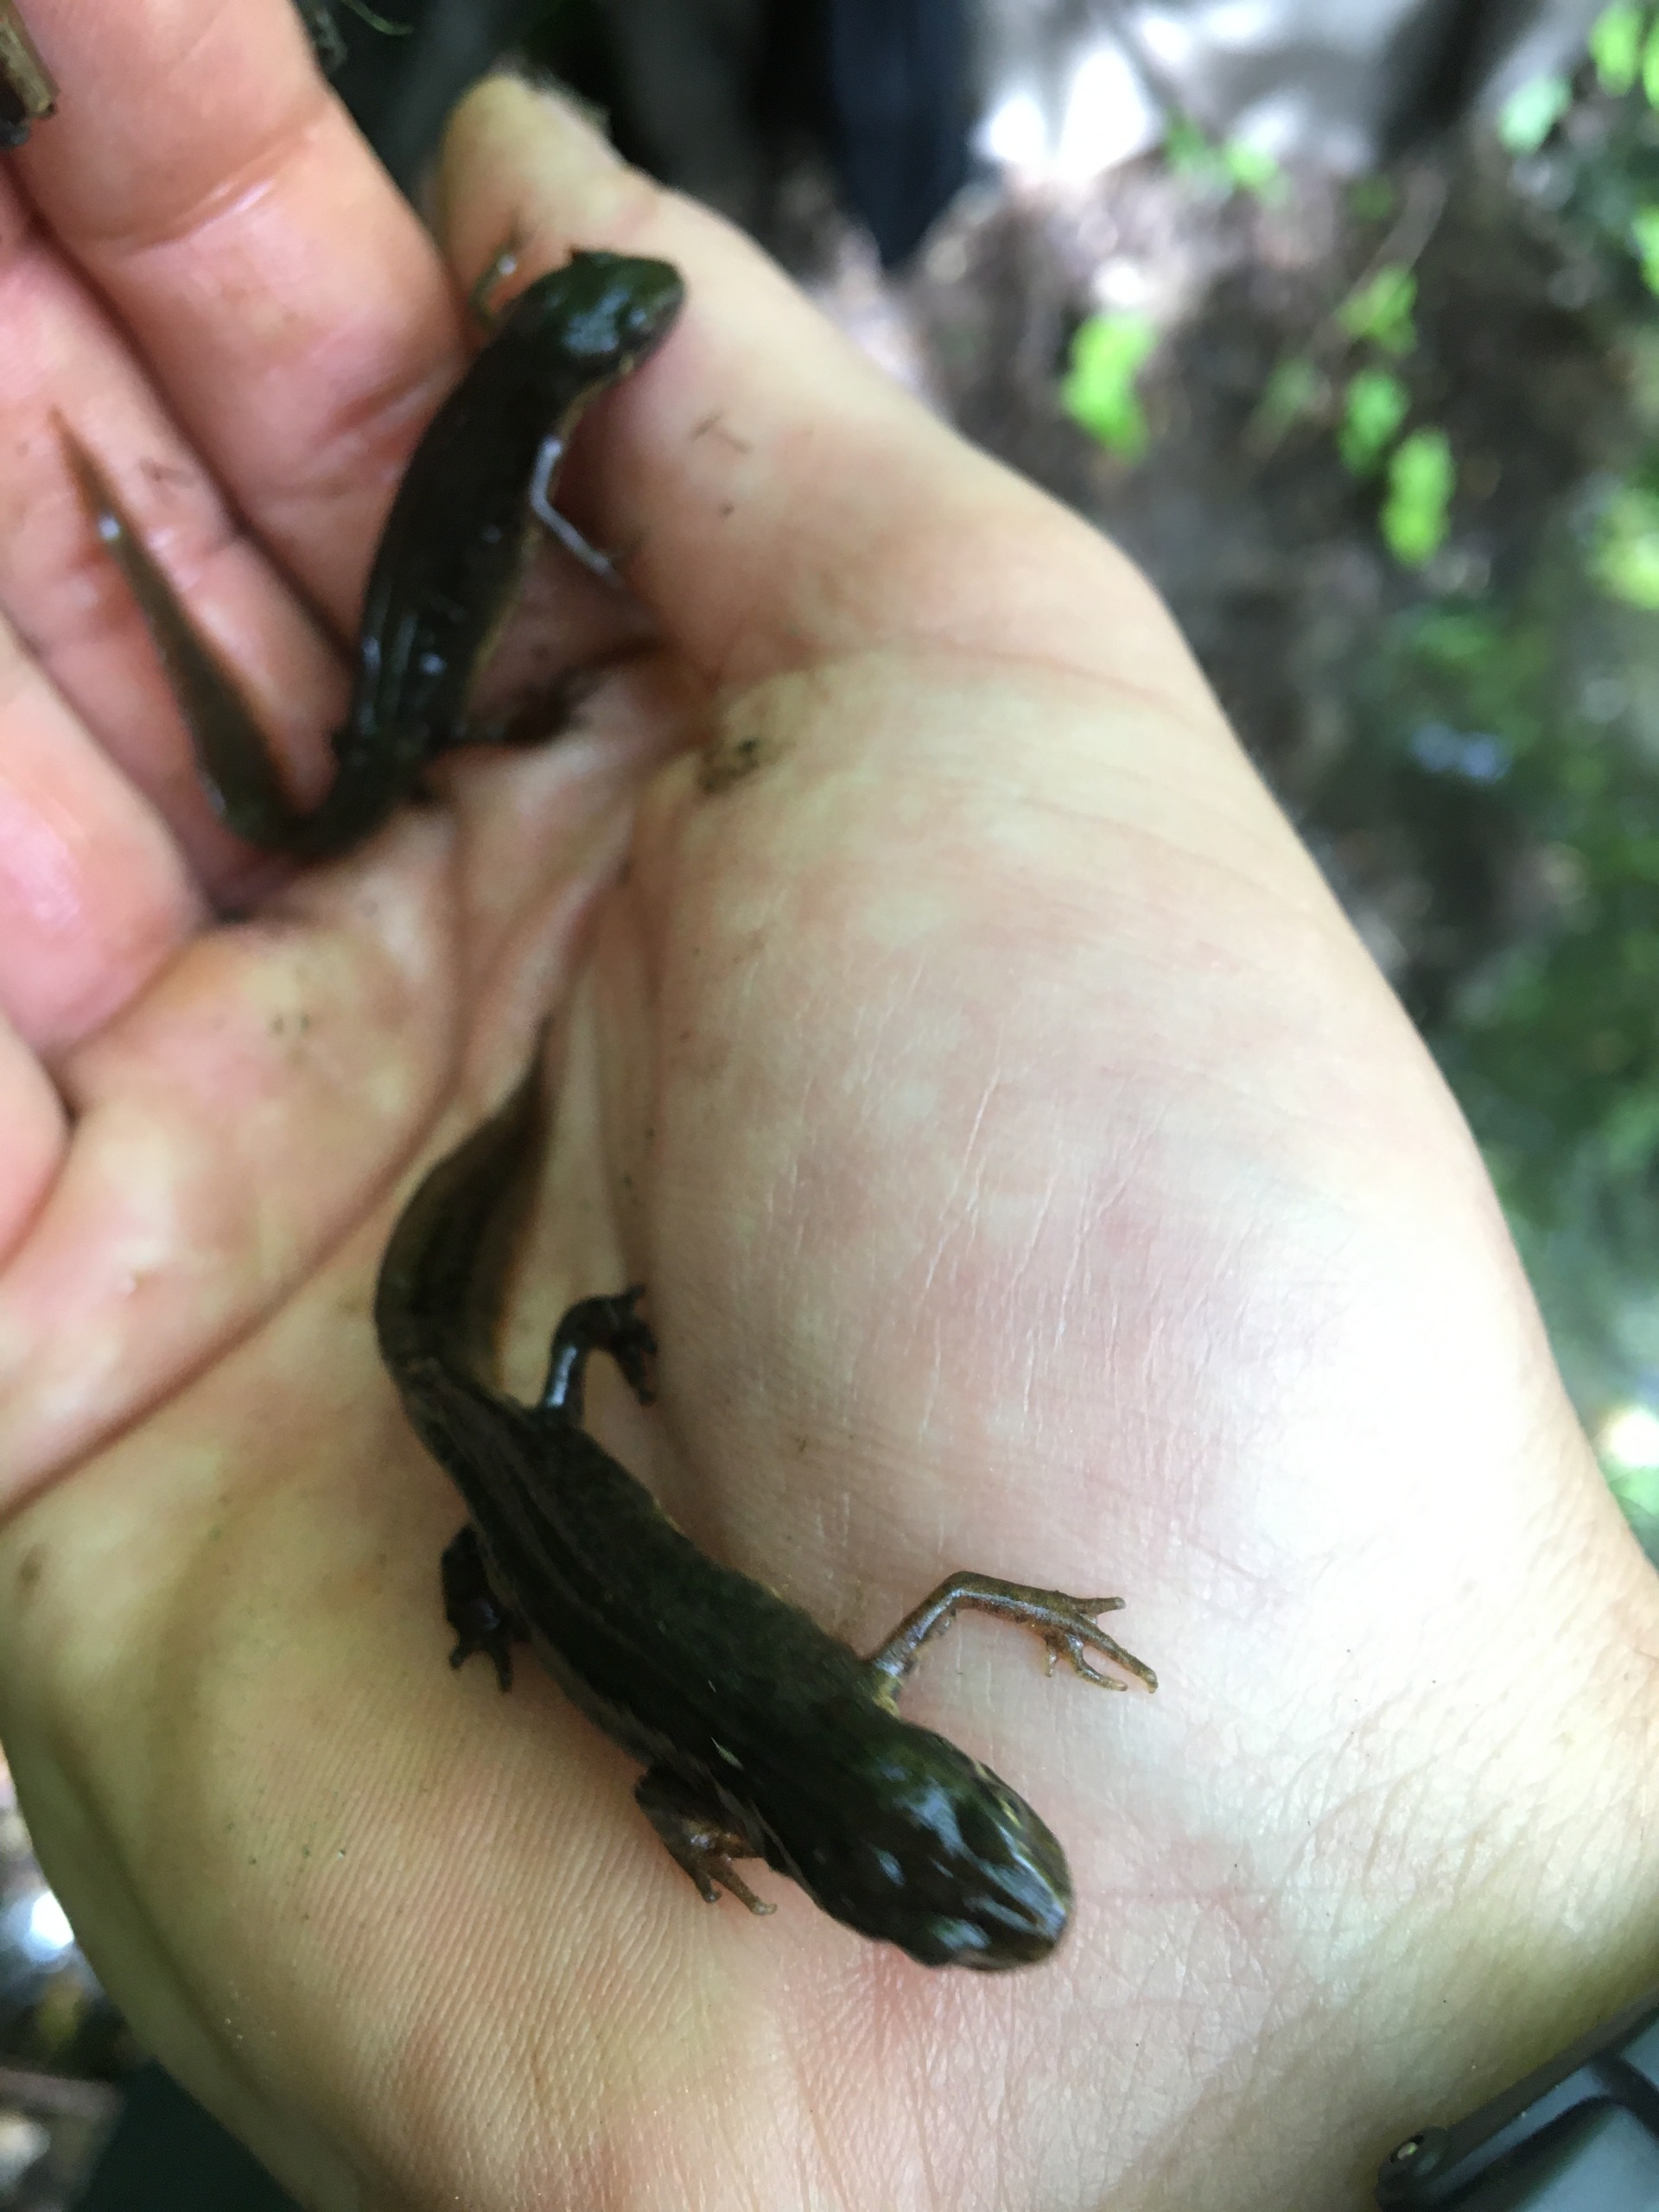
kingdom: Animalia
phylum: Chordata
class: Amphibia
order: Caudata
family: Salamandridae
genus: Lissotriton
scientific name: Lissotriton vulgaris
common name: Lille vandsalamander
